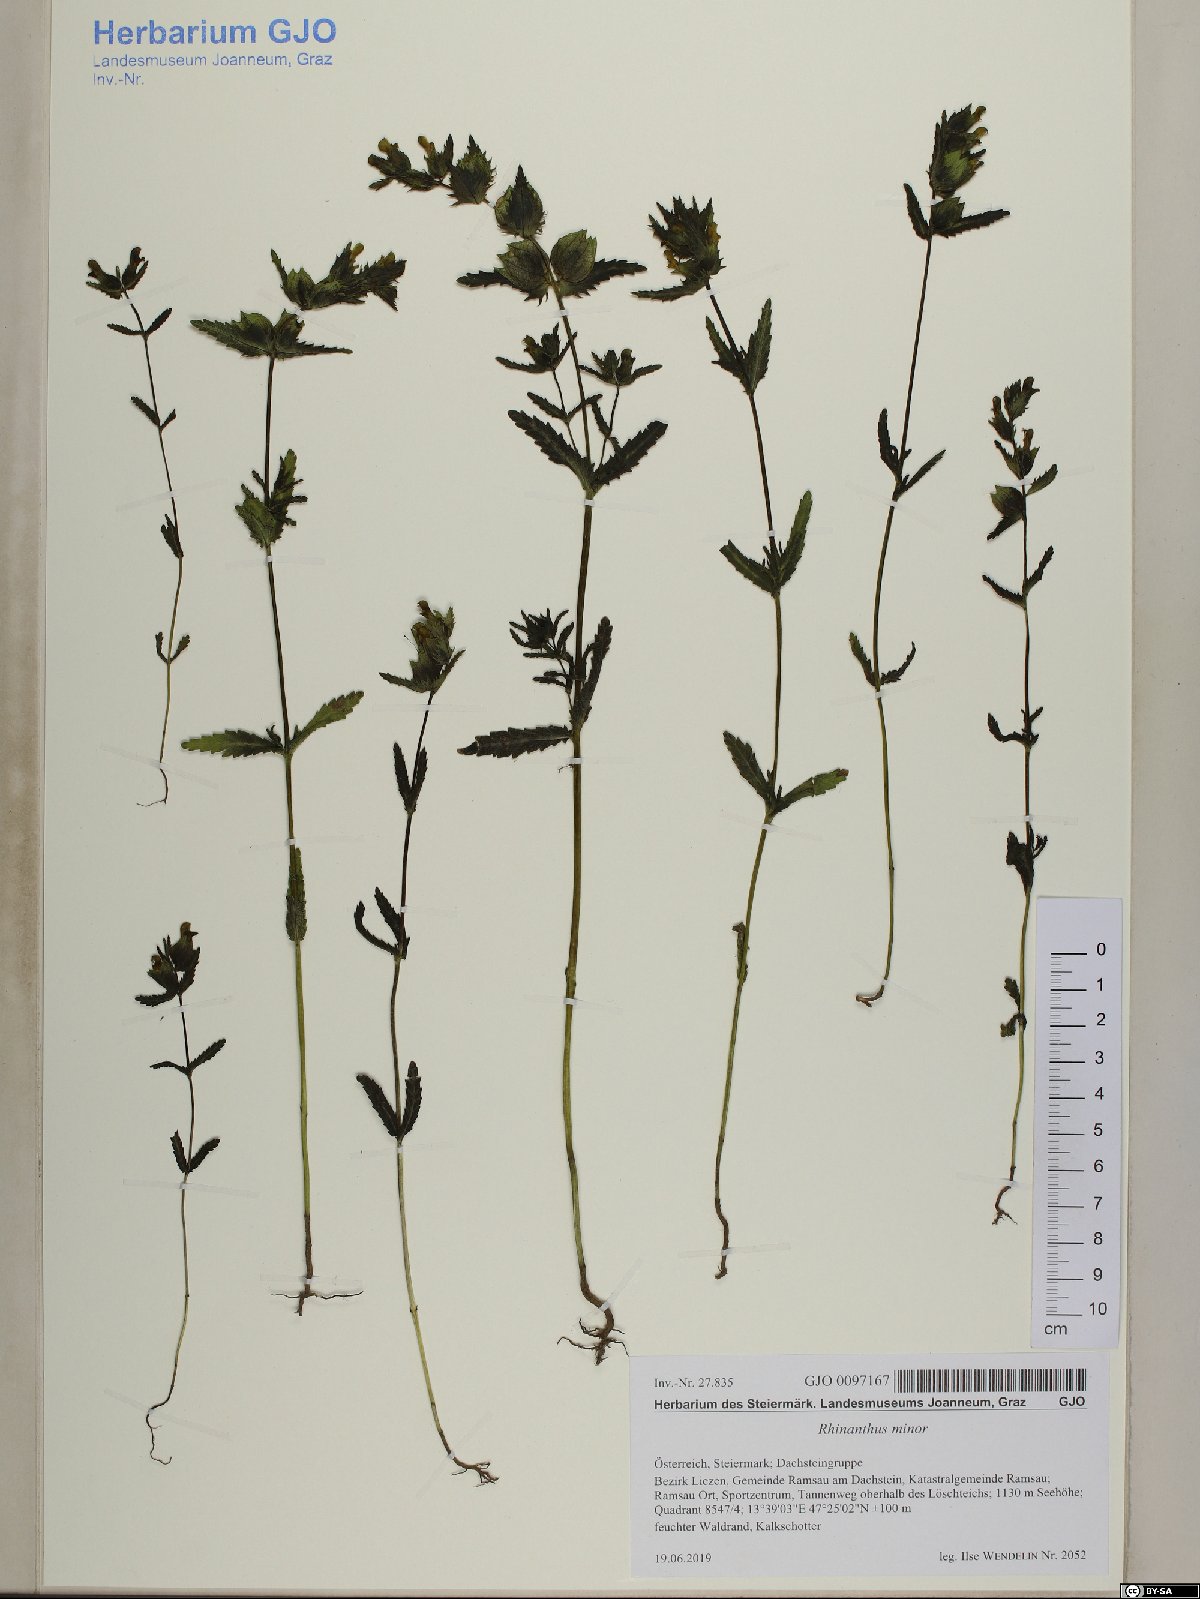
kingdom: Plantae
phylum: Tracheophyta
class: Magnoliopsida
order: Lamiales
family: Orobanchaceae
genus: Rhinanthus
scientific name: Rhinanthus minor
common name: Yellow-rattle
